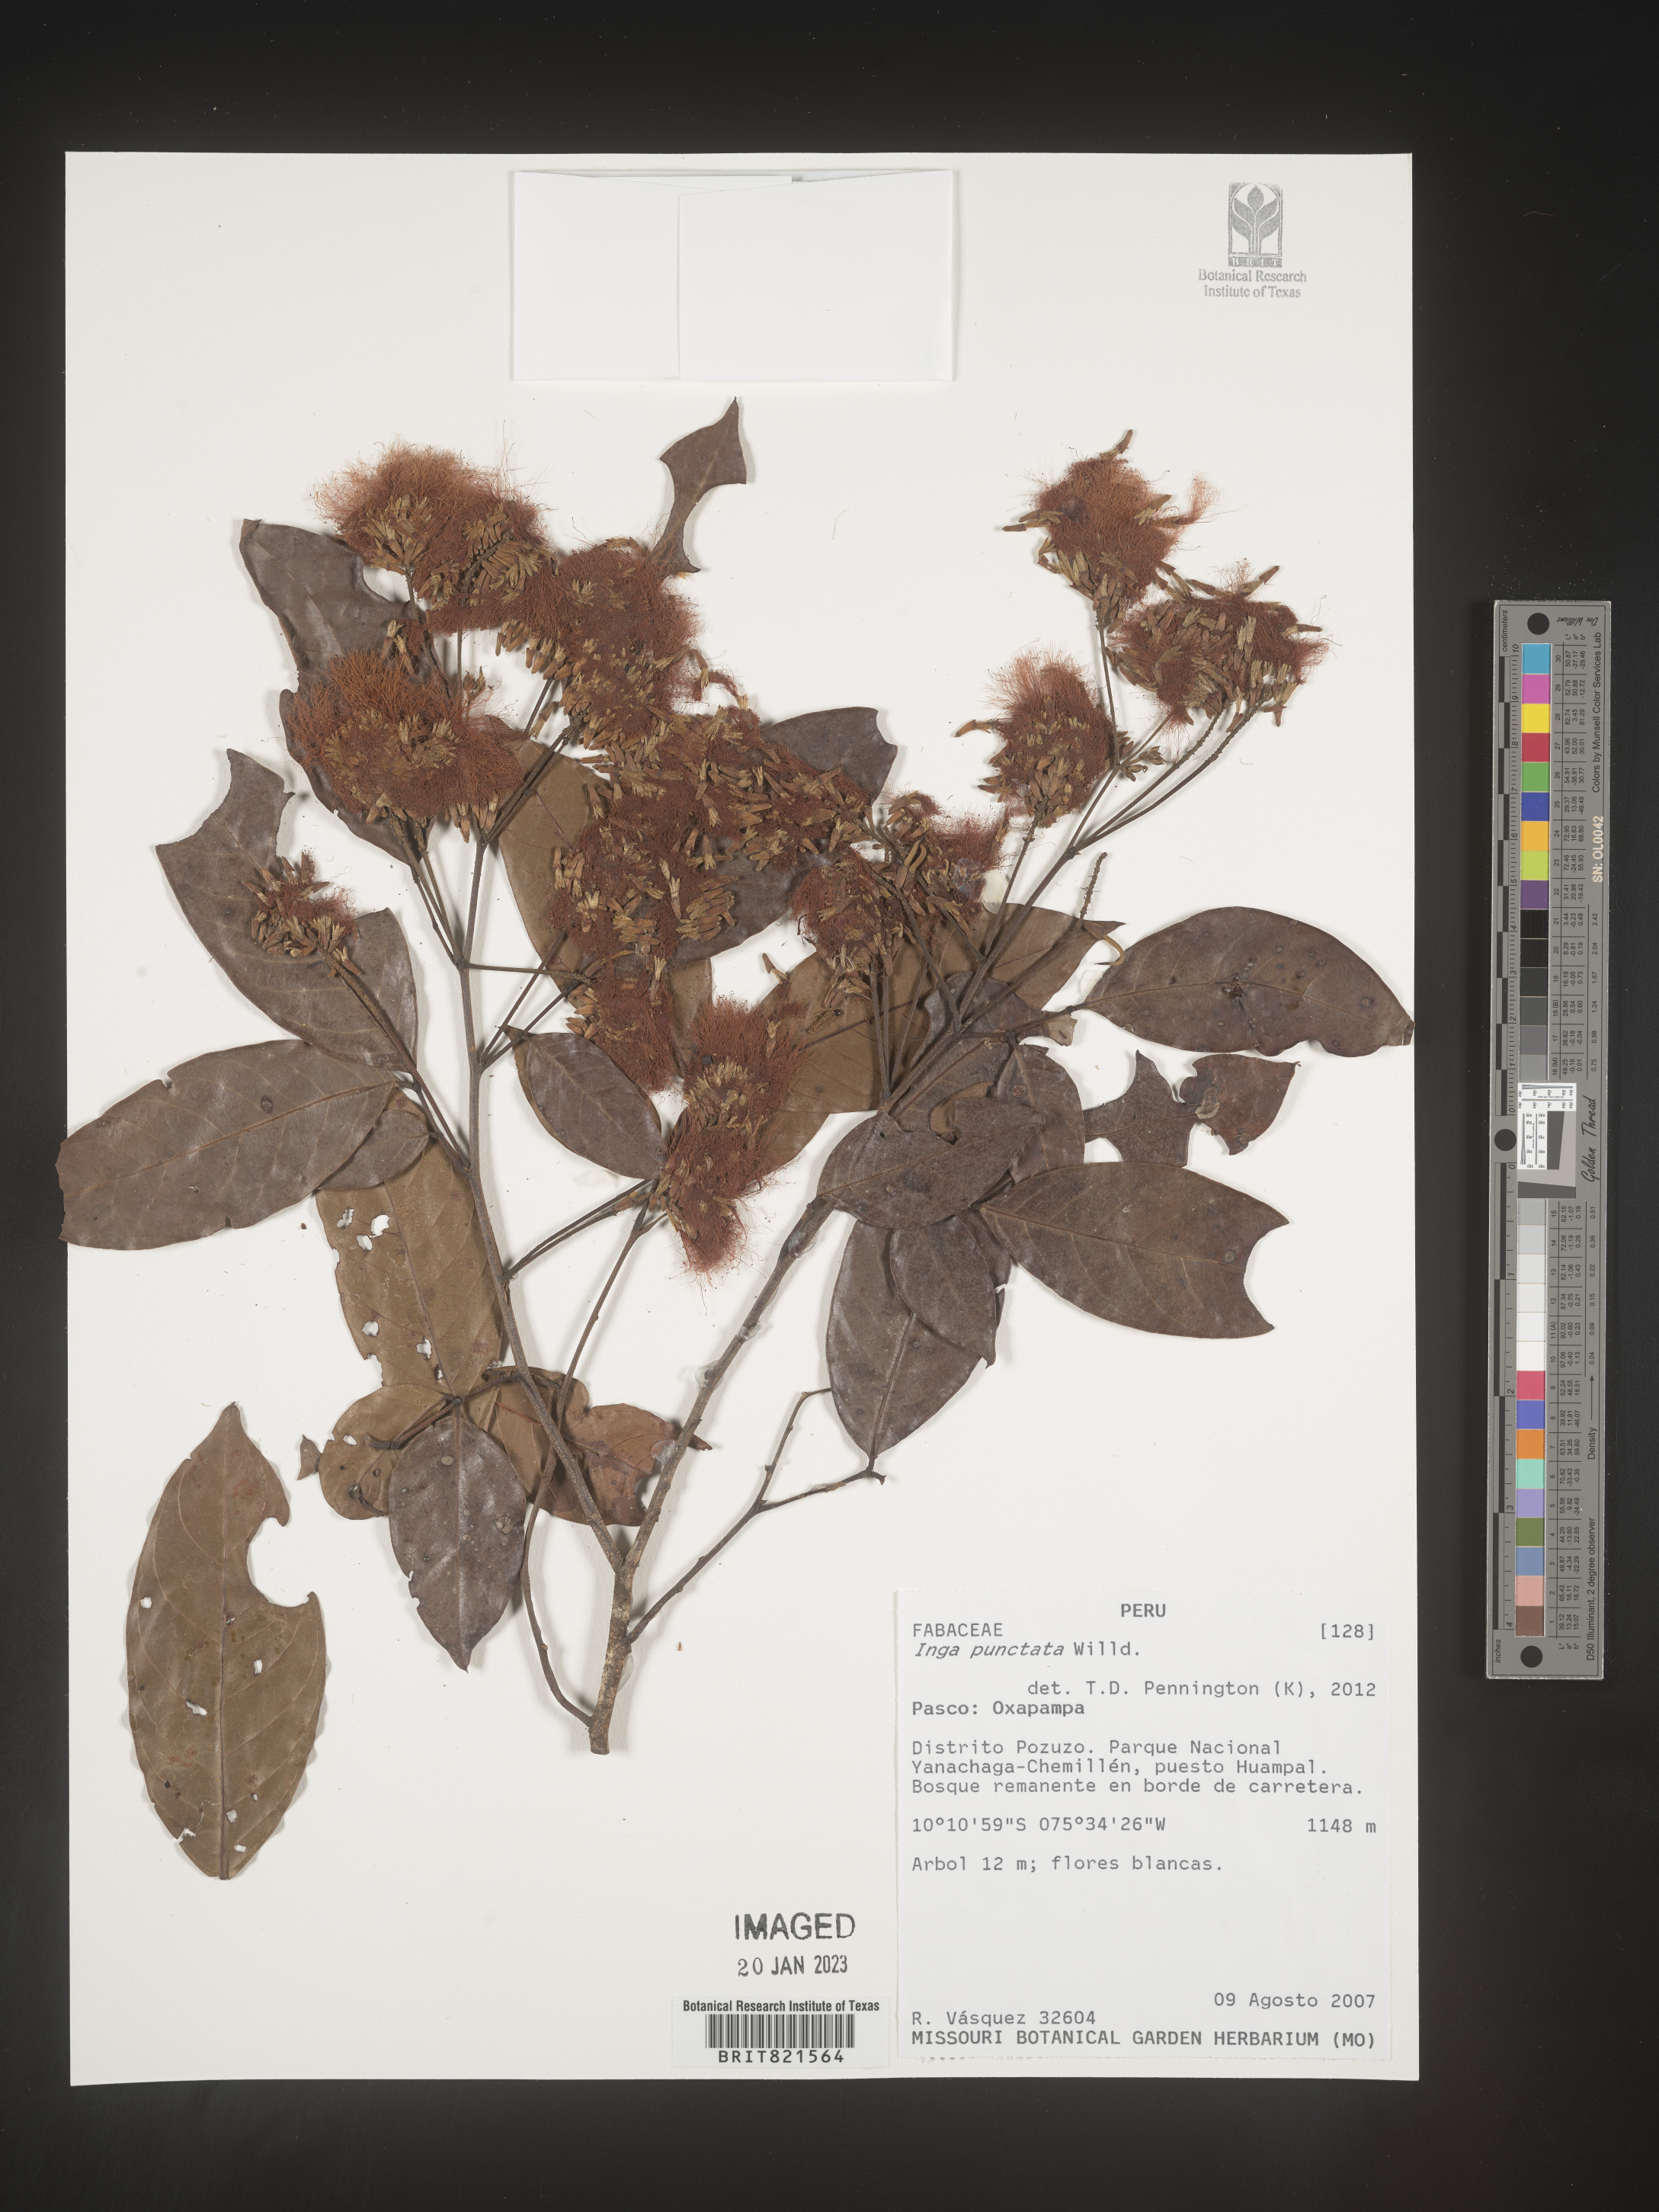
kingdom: Plantae
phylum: Tracheophyta
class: Magnoliopsida
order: Fabales
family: Fabaceae
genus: Inga
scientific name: Inga
